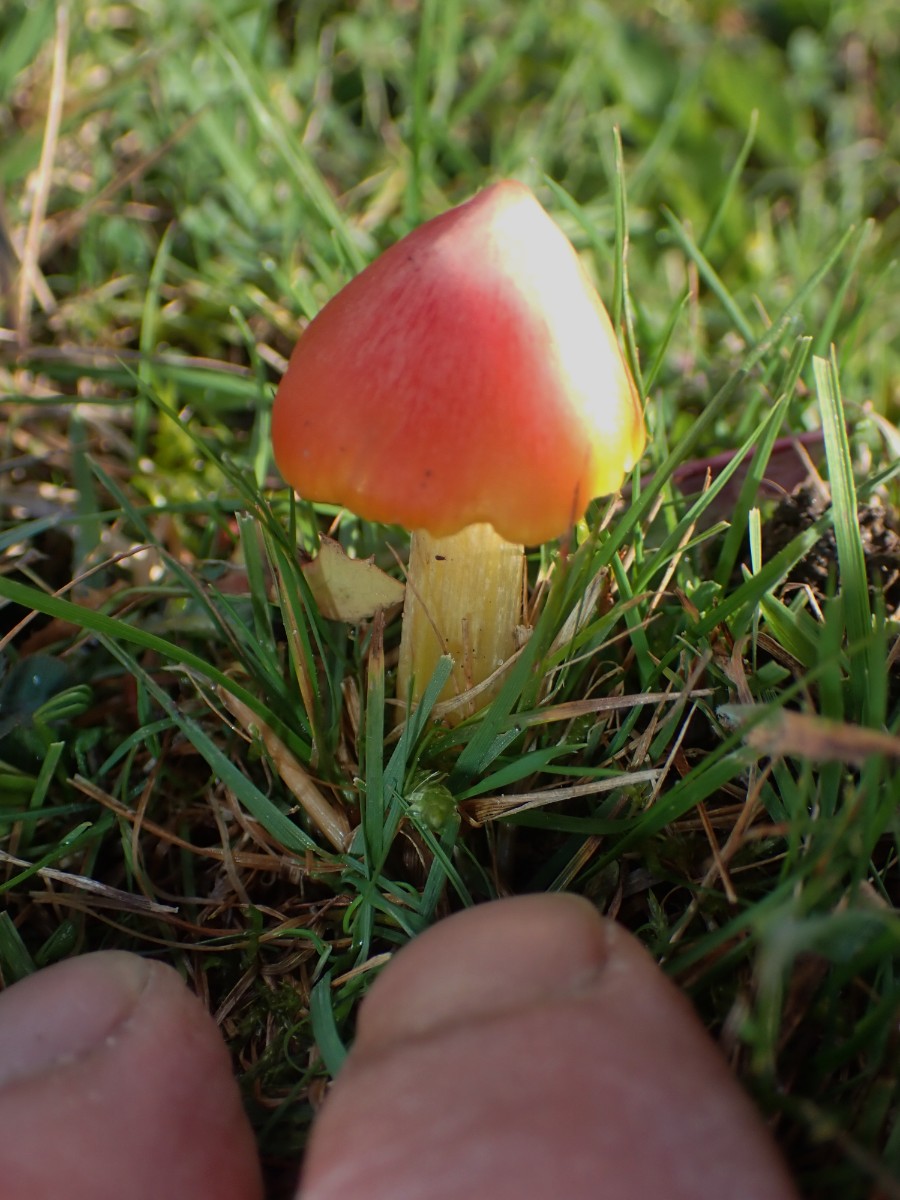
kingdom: Fungi
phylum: Basidiomycota
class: Agaricomycetes
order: Agaricales
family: Hygrophoraceae
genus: Hygrocybe
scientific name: Hygrocybe conica
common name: kegle-vokshat
